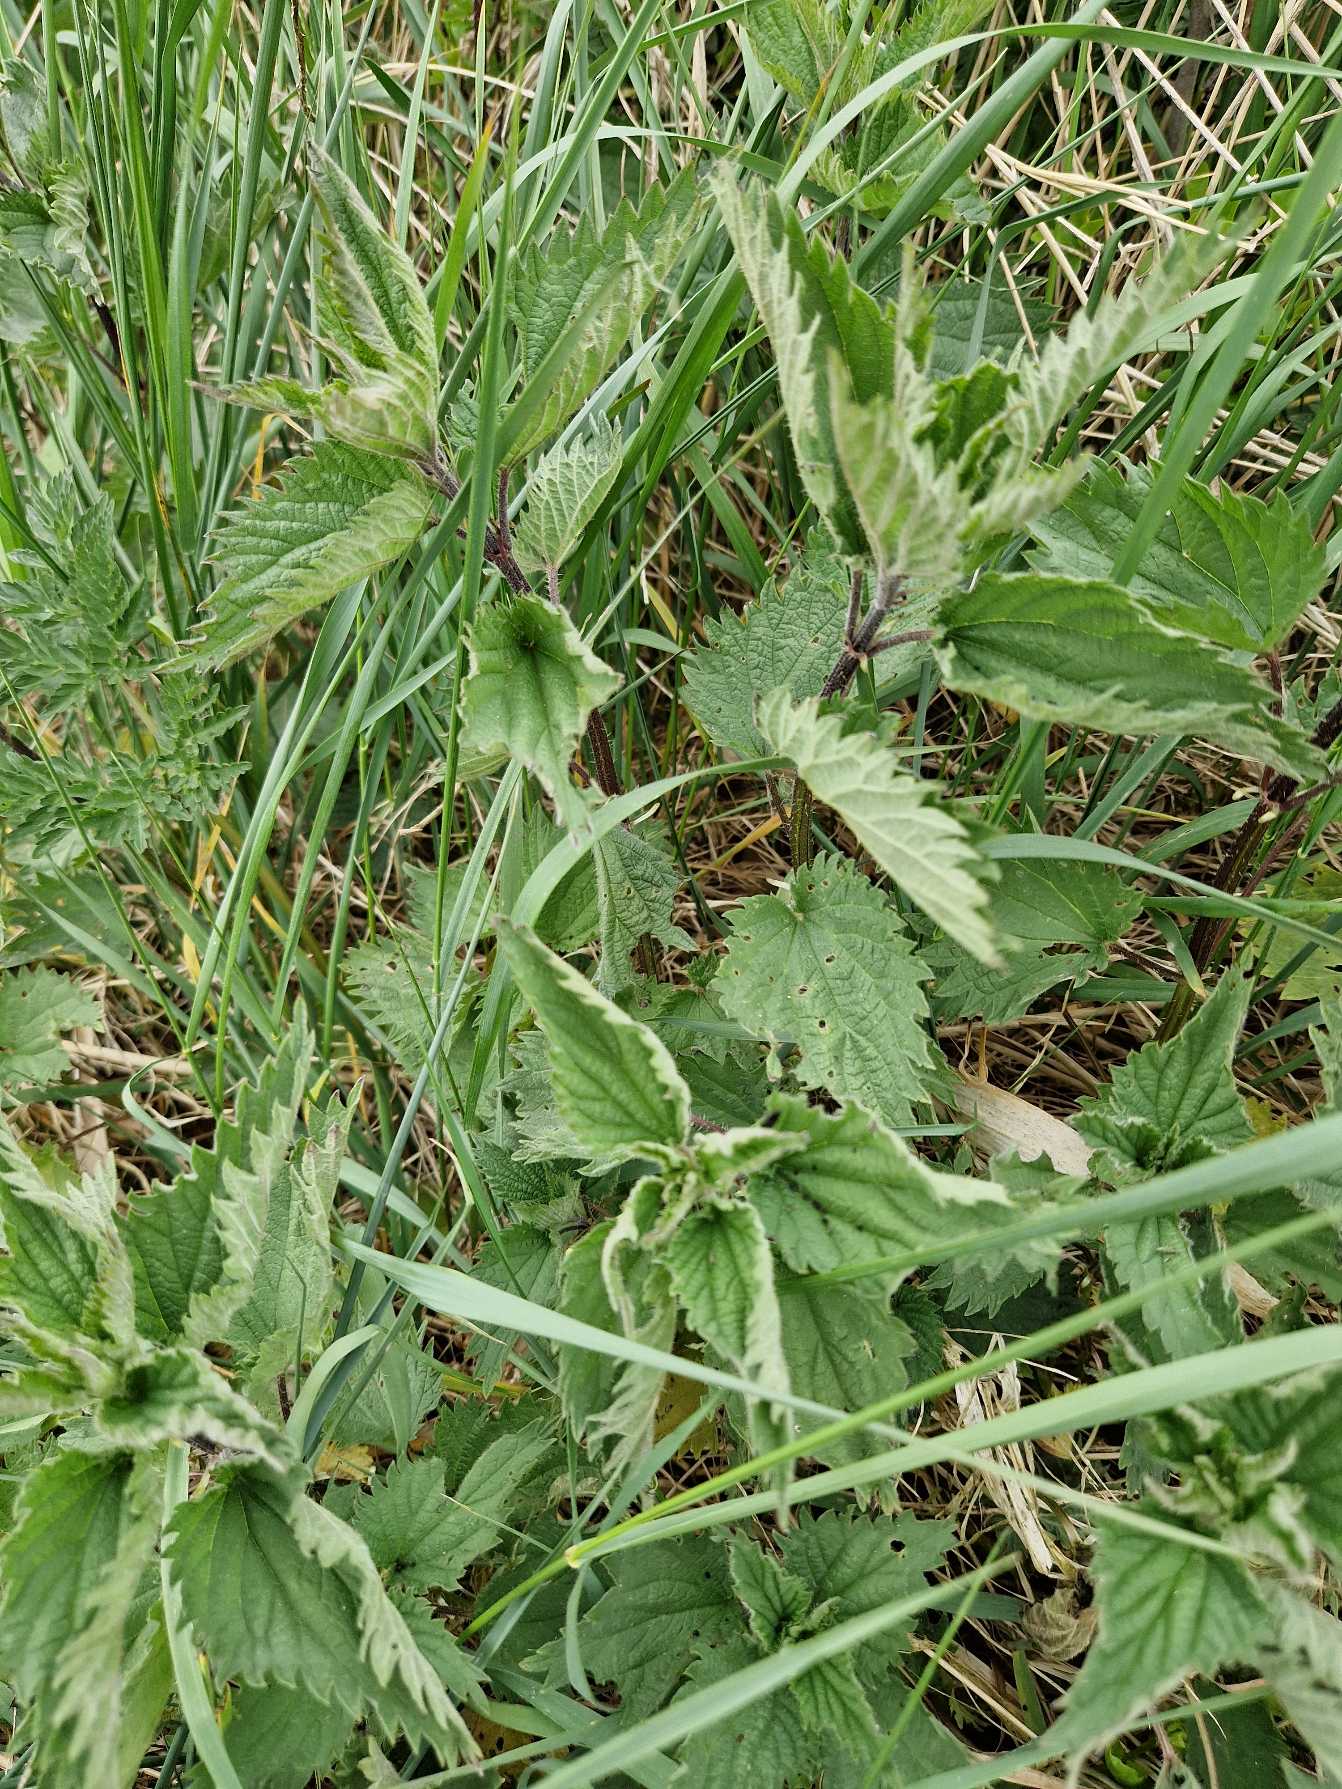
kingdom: Plantae
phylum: Tracheophyta
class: Magnoliopsida
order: Rosales
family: Urticaceae
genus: Urtica
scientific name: Urtica dioica
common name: Stor nælde
